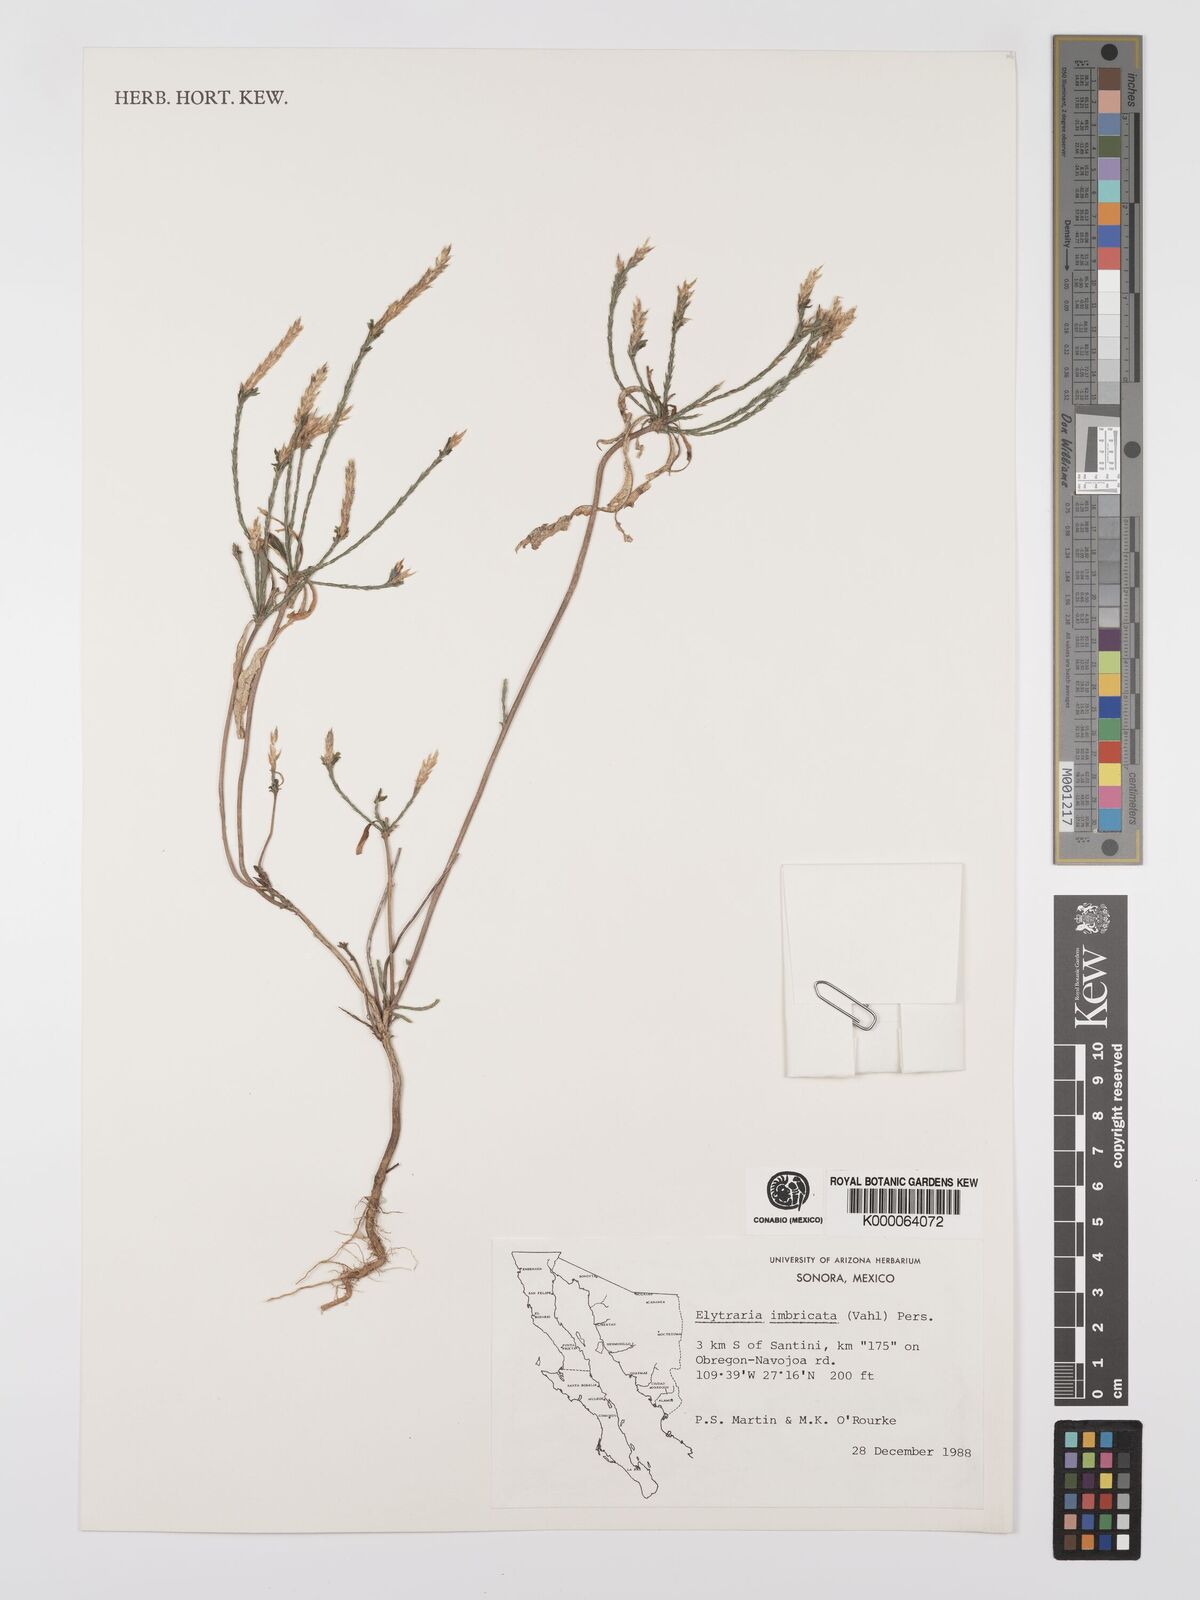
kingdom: Plantae
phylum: Tracheophyta
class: Magnoliopsida
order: Lamiales
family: Acanthaceae
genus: Elytraria
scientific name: Elytraria imbricata
